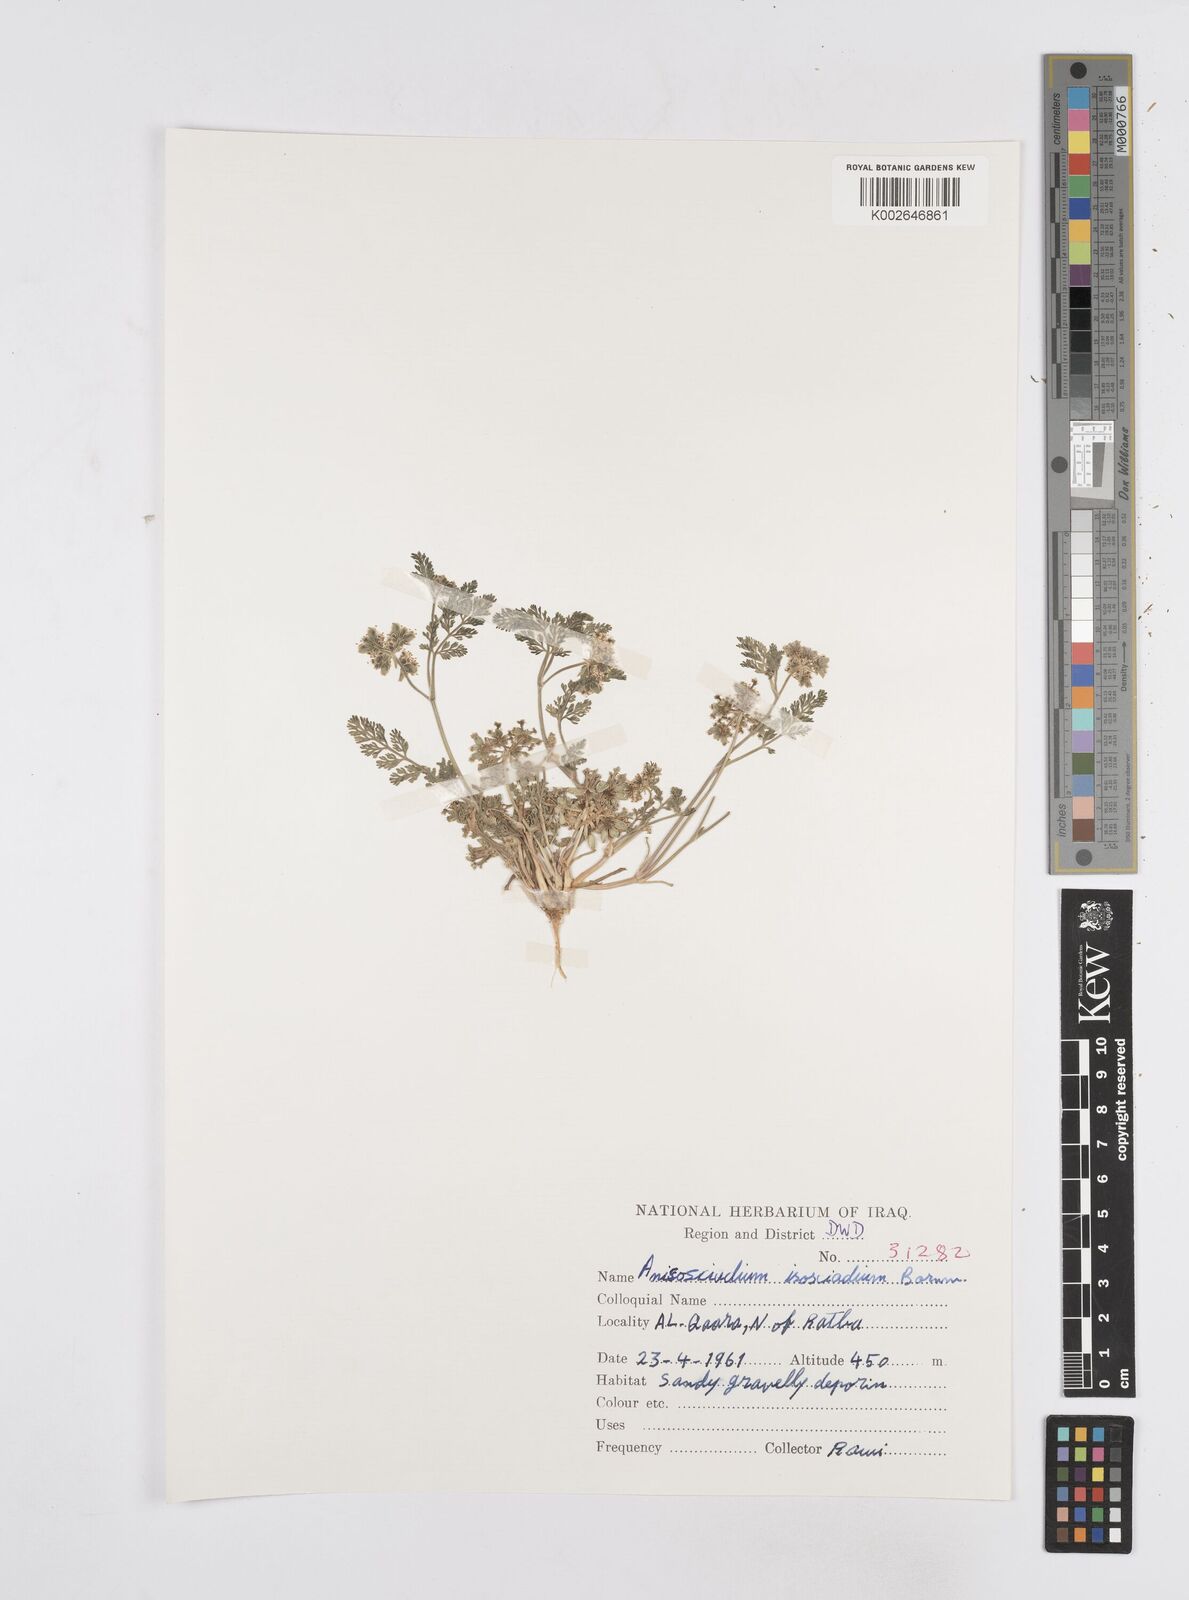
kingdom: Plantae
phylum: Tracheophyta
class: Magnoliopsida
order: Apiales
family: Apiaceae
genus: Anisosciadium
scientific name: Anisosciadium isosciadium
